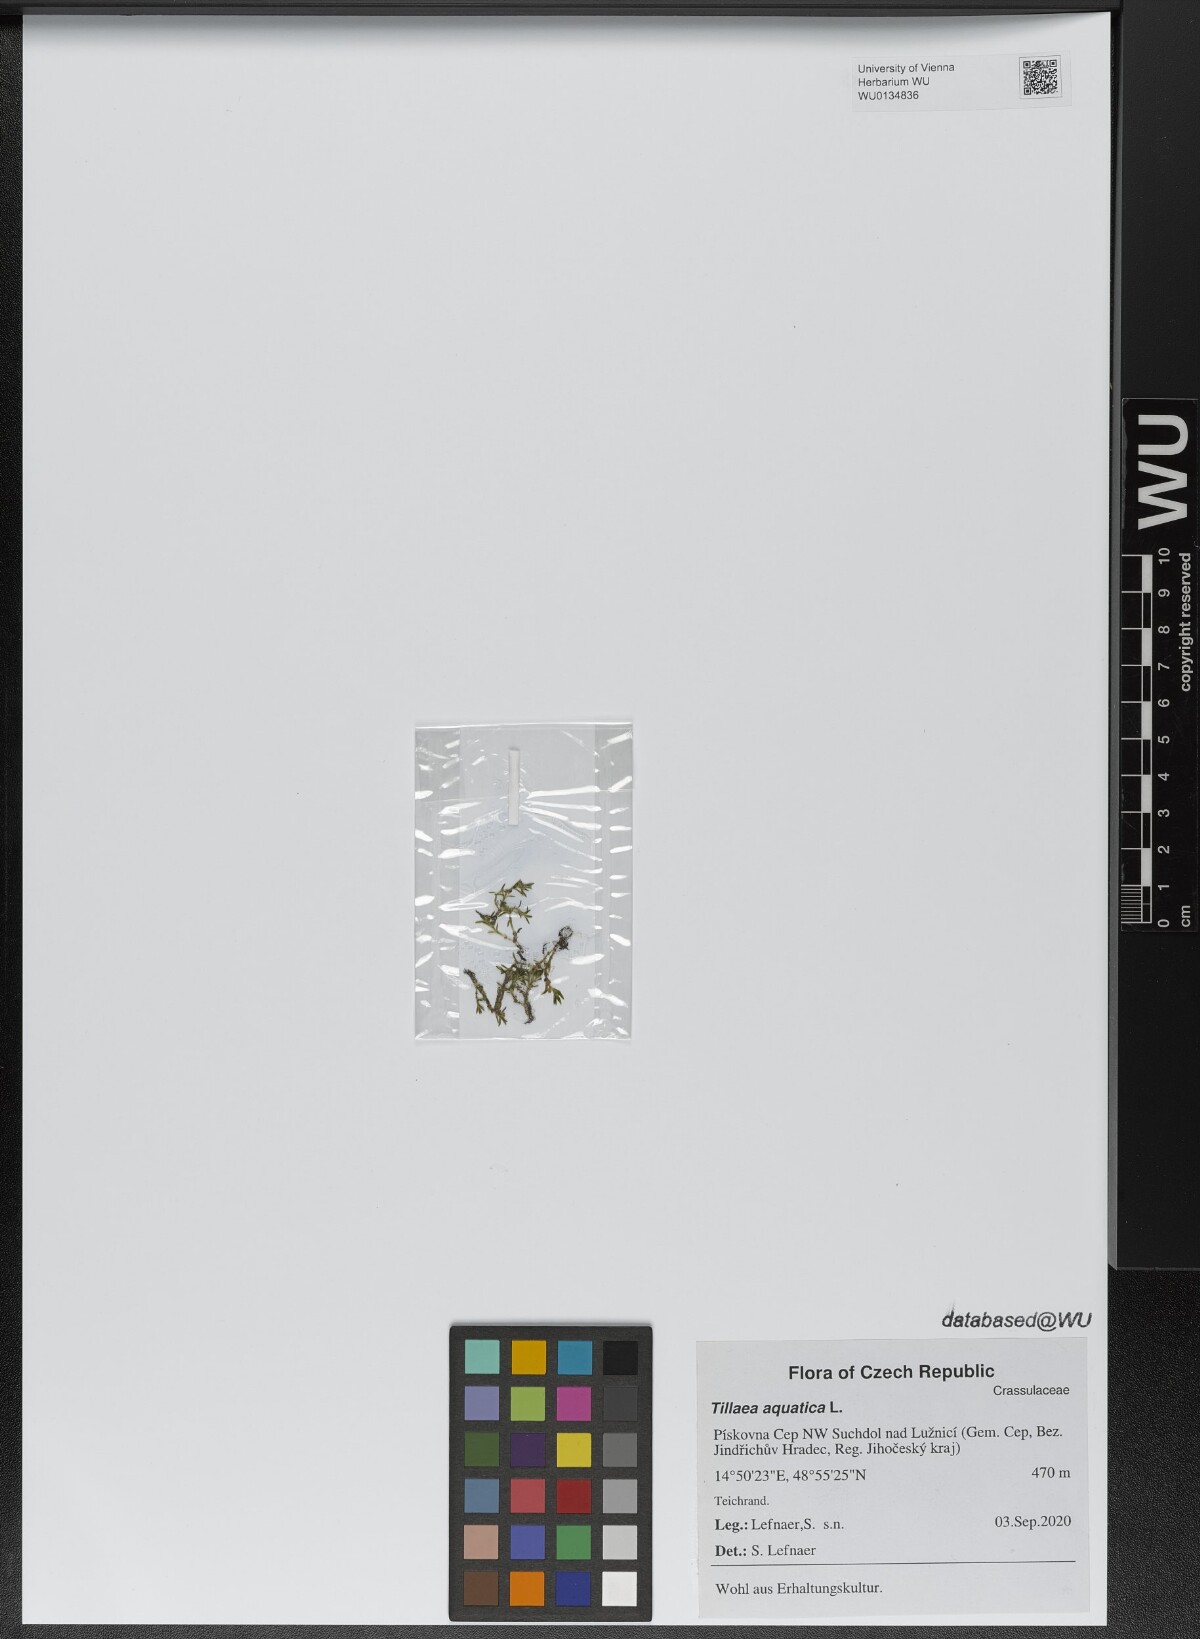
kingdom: Plantae
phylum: Tracheophyta
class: Magnoliopsida
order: Saxifragales
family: Crassulaceae
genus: Crassula
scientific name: Crassula aquatica
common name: Pigmyweed
